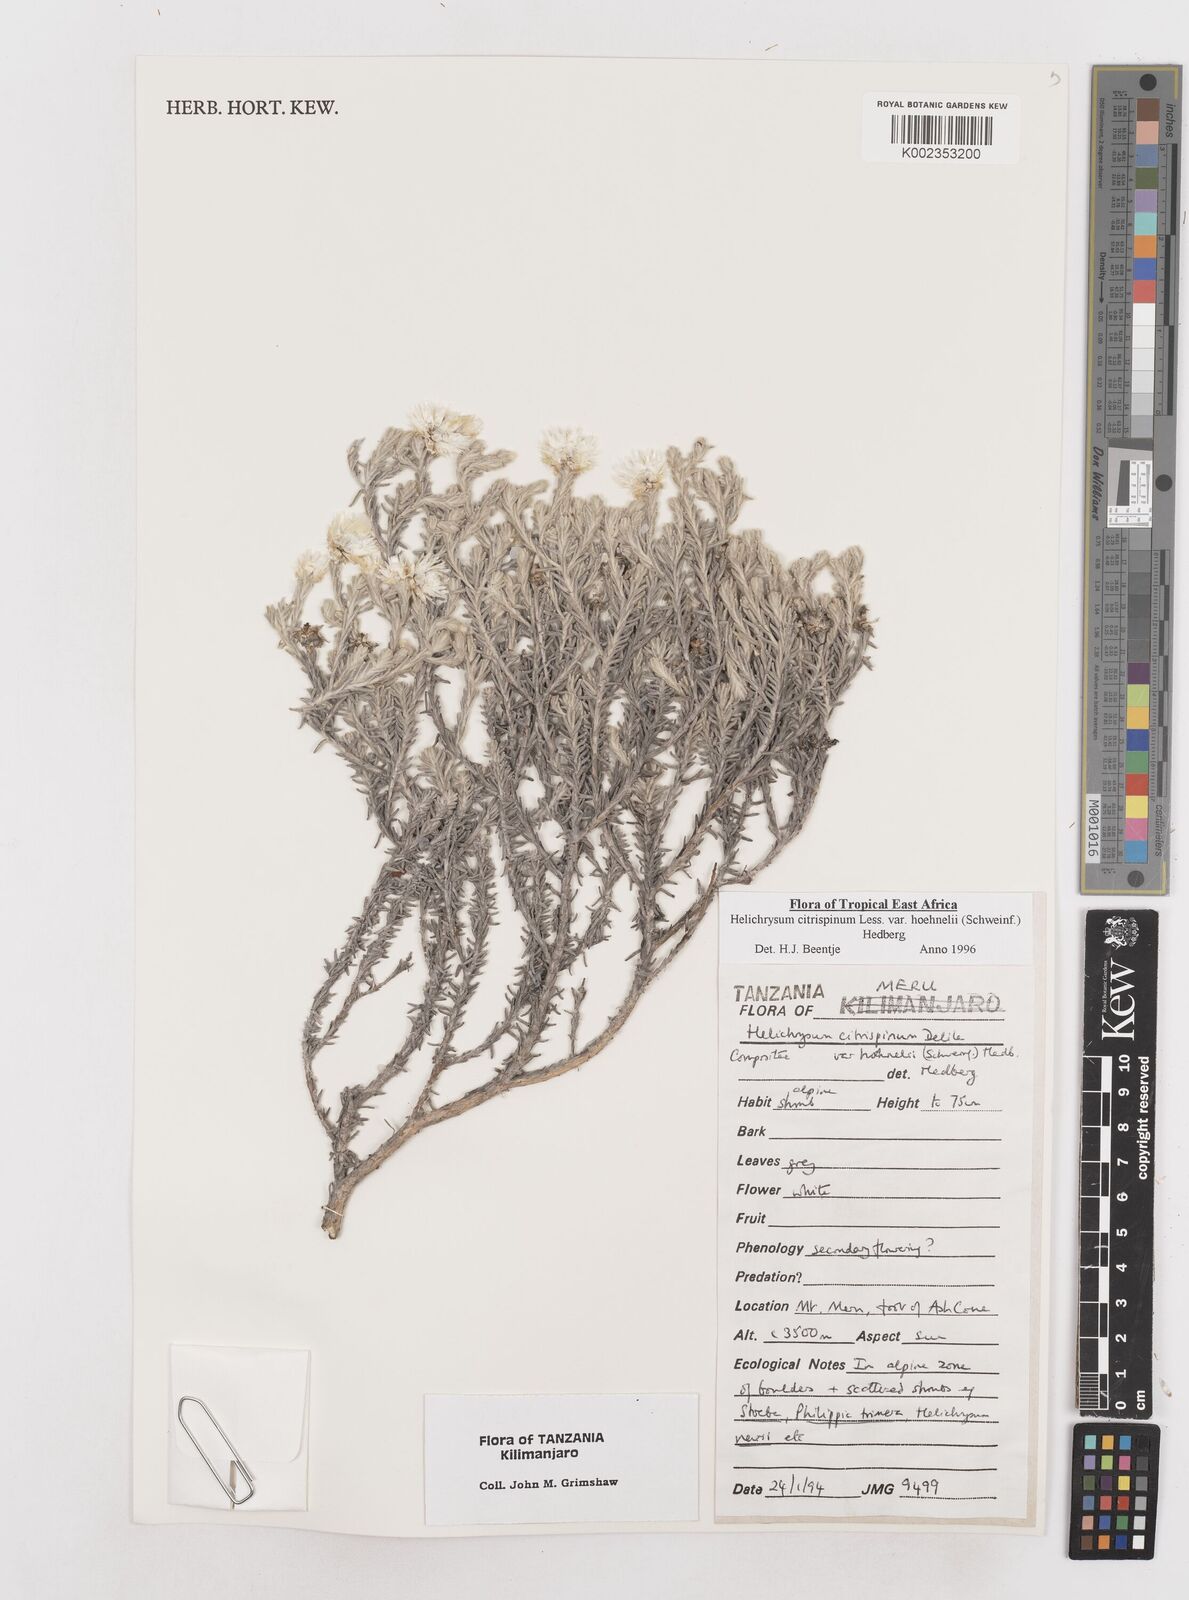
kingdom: Plantae
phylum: Tracheophyta
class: Magnoliopsida
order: Asterales
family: Asteraceae
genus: Helichrysum
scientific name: Helichrysum citrispinum
